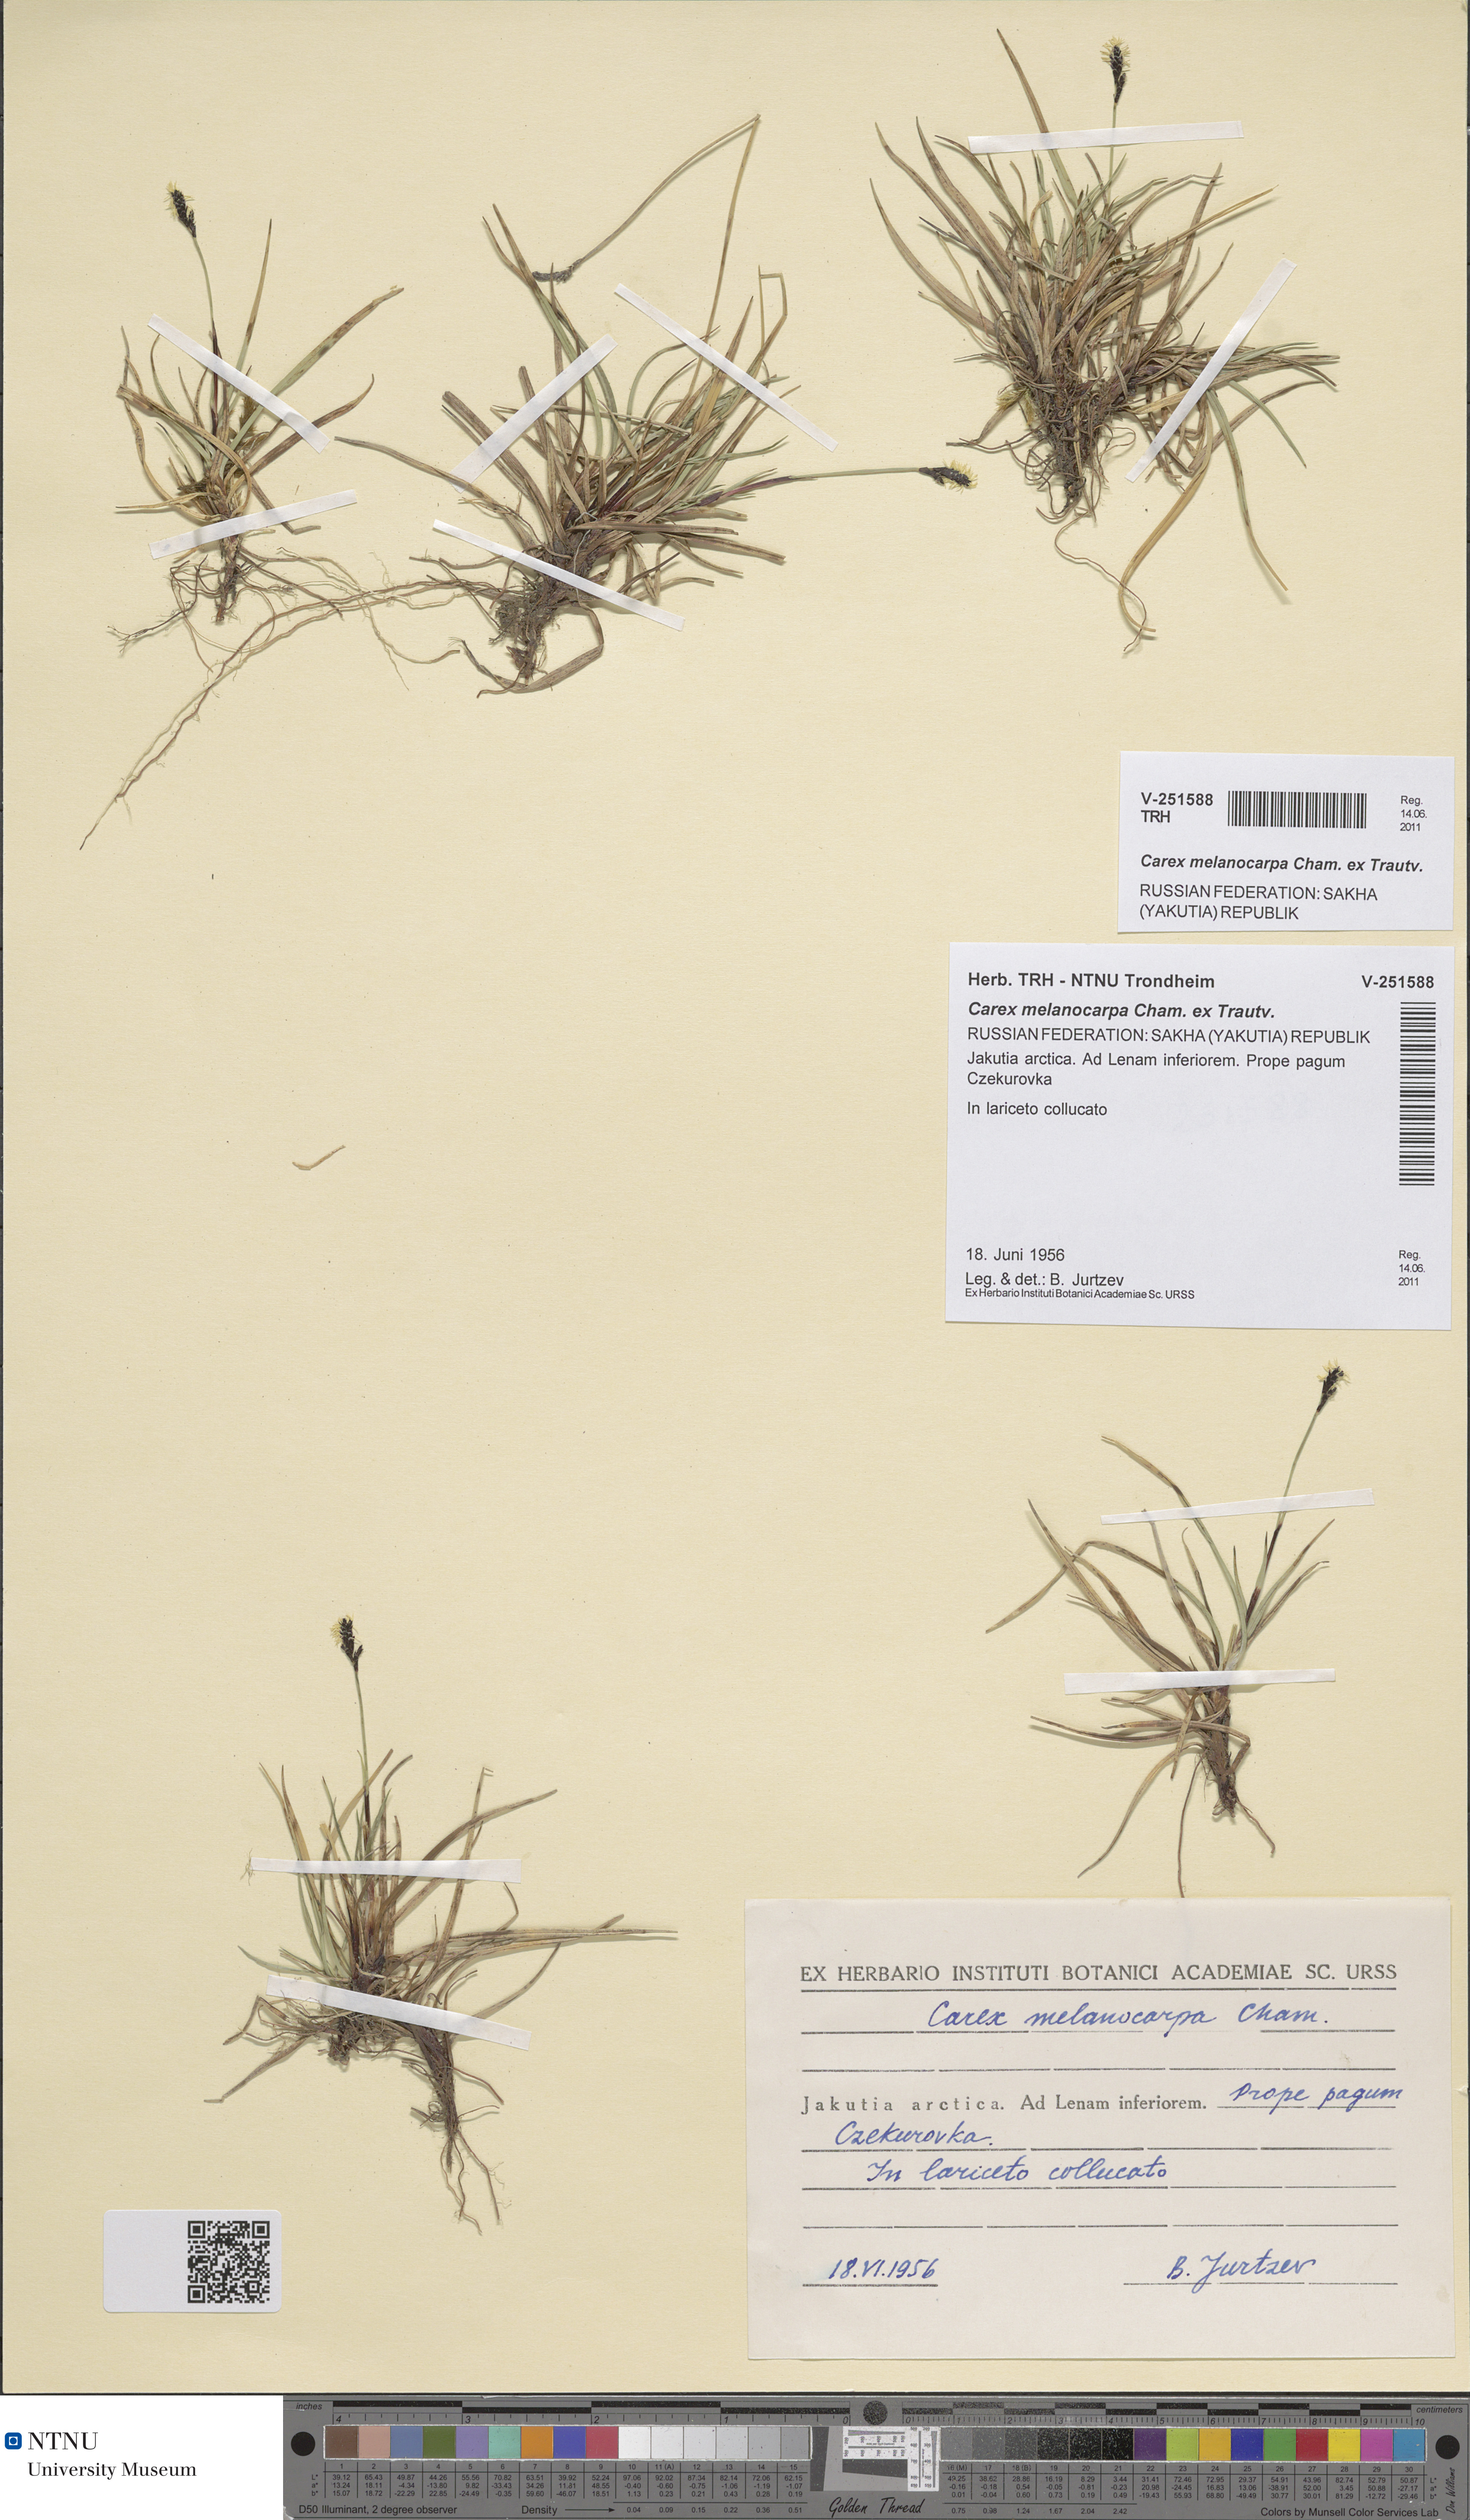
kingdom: Plantae
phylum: Tracheophyta
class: Liliopsida
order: Poales
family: Cyperaceae
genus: Carex
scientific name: Carex melanocarpa
